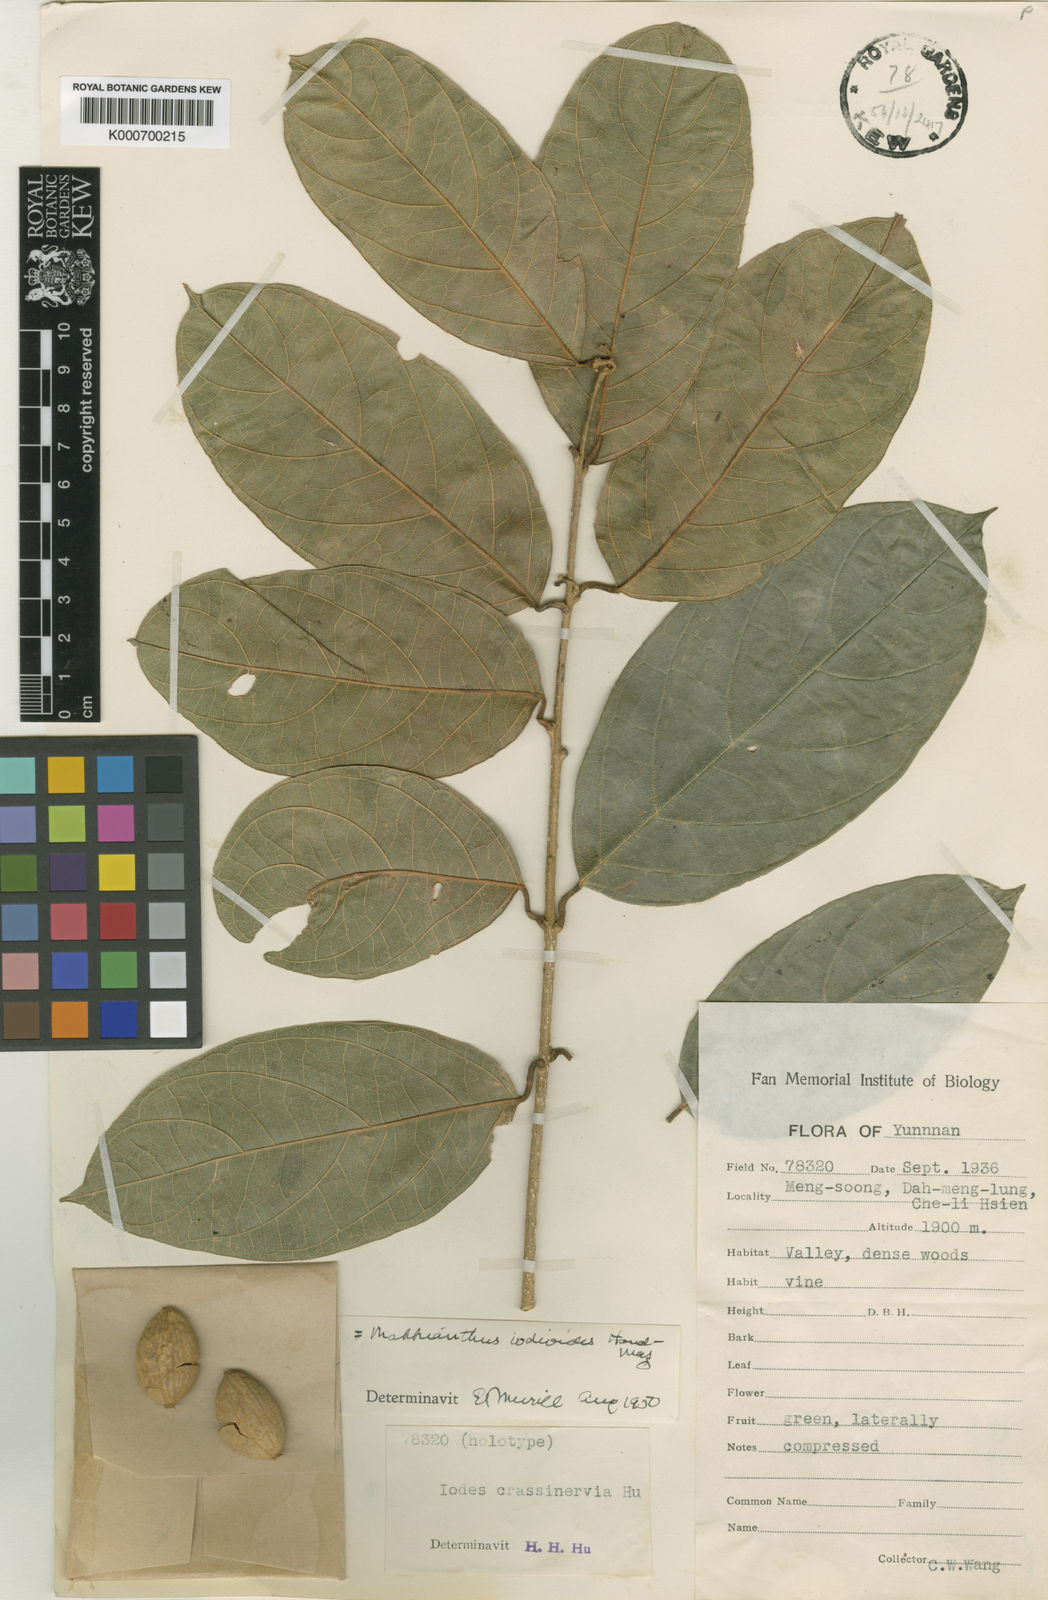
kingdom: Plantae
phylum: Tracheophyta
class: Magnoliopsida
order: Icacinales
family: Icacinaceae
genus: Mappianthus
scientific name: Mappianthus iodoides
